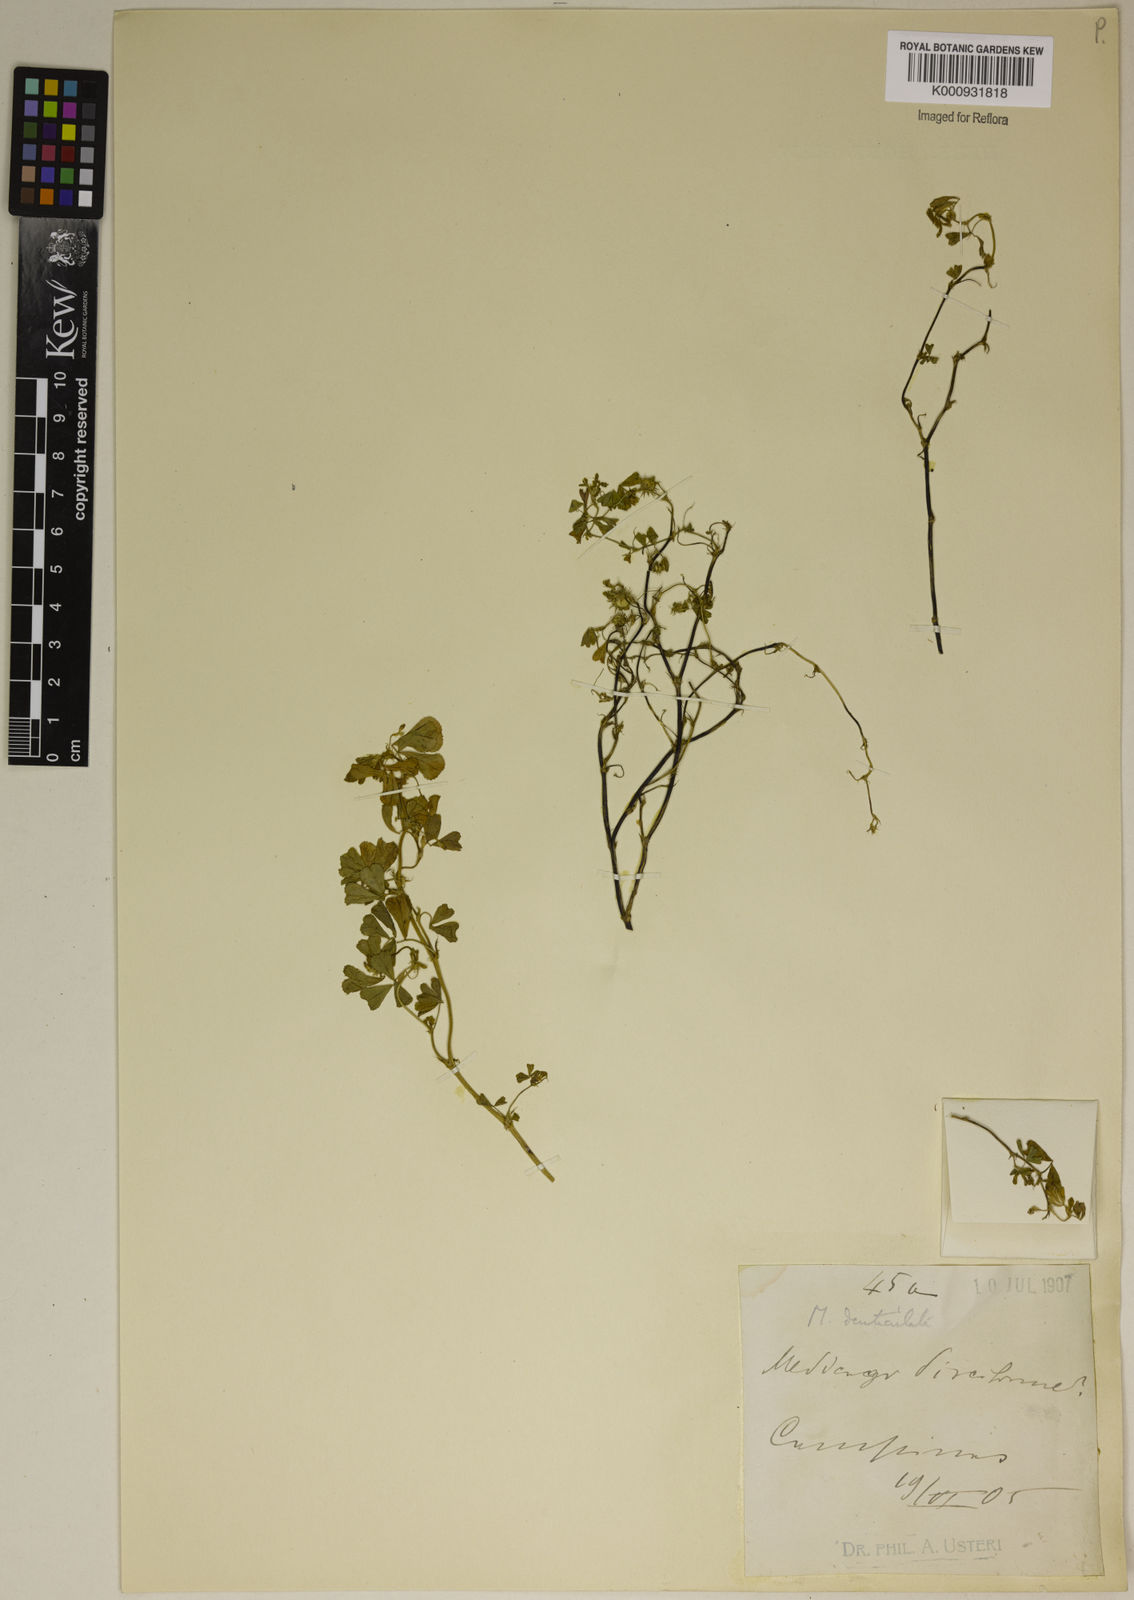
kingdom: Plantae
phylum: Tracheophyta
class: Magnoliopsida
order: Fabales
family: Fabaceae
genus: Medicago
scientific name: Medicago
